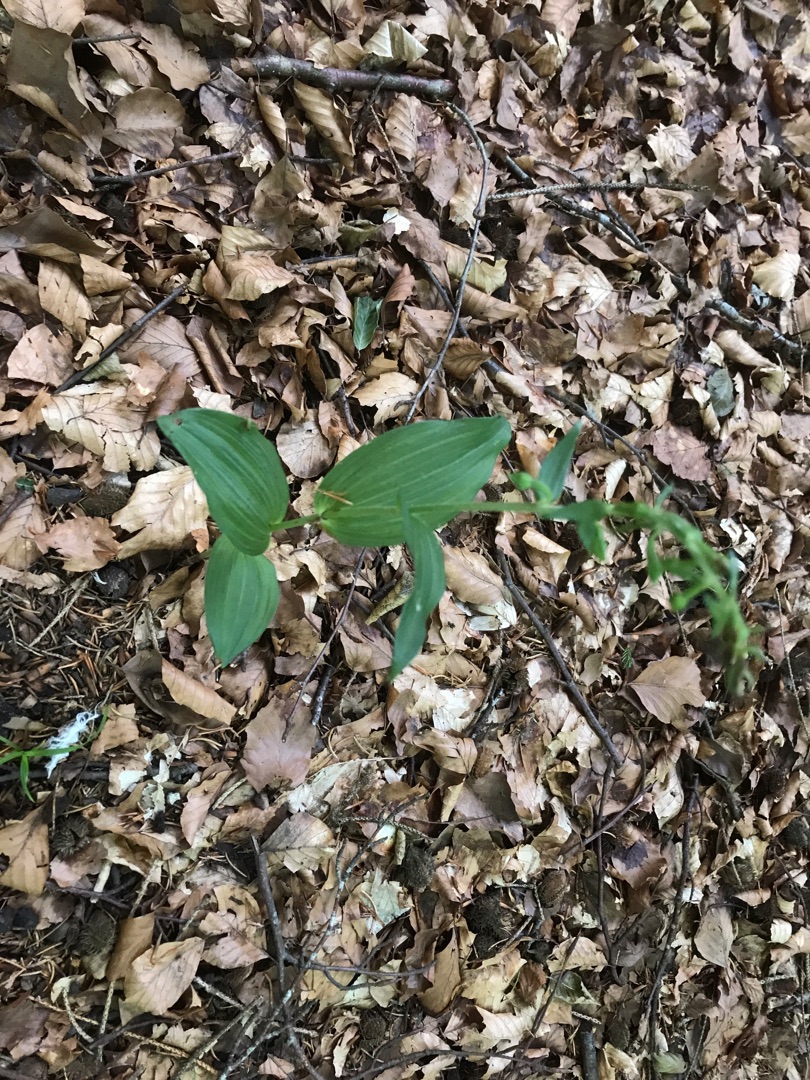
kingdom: Plantae
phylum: Tracheophyta
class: Liliopsida
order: Asparagales
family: Orchidaceae
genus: Epipactis
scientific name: Epipactis helleborine
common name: Skov-hullæbe
